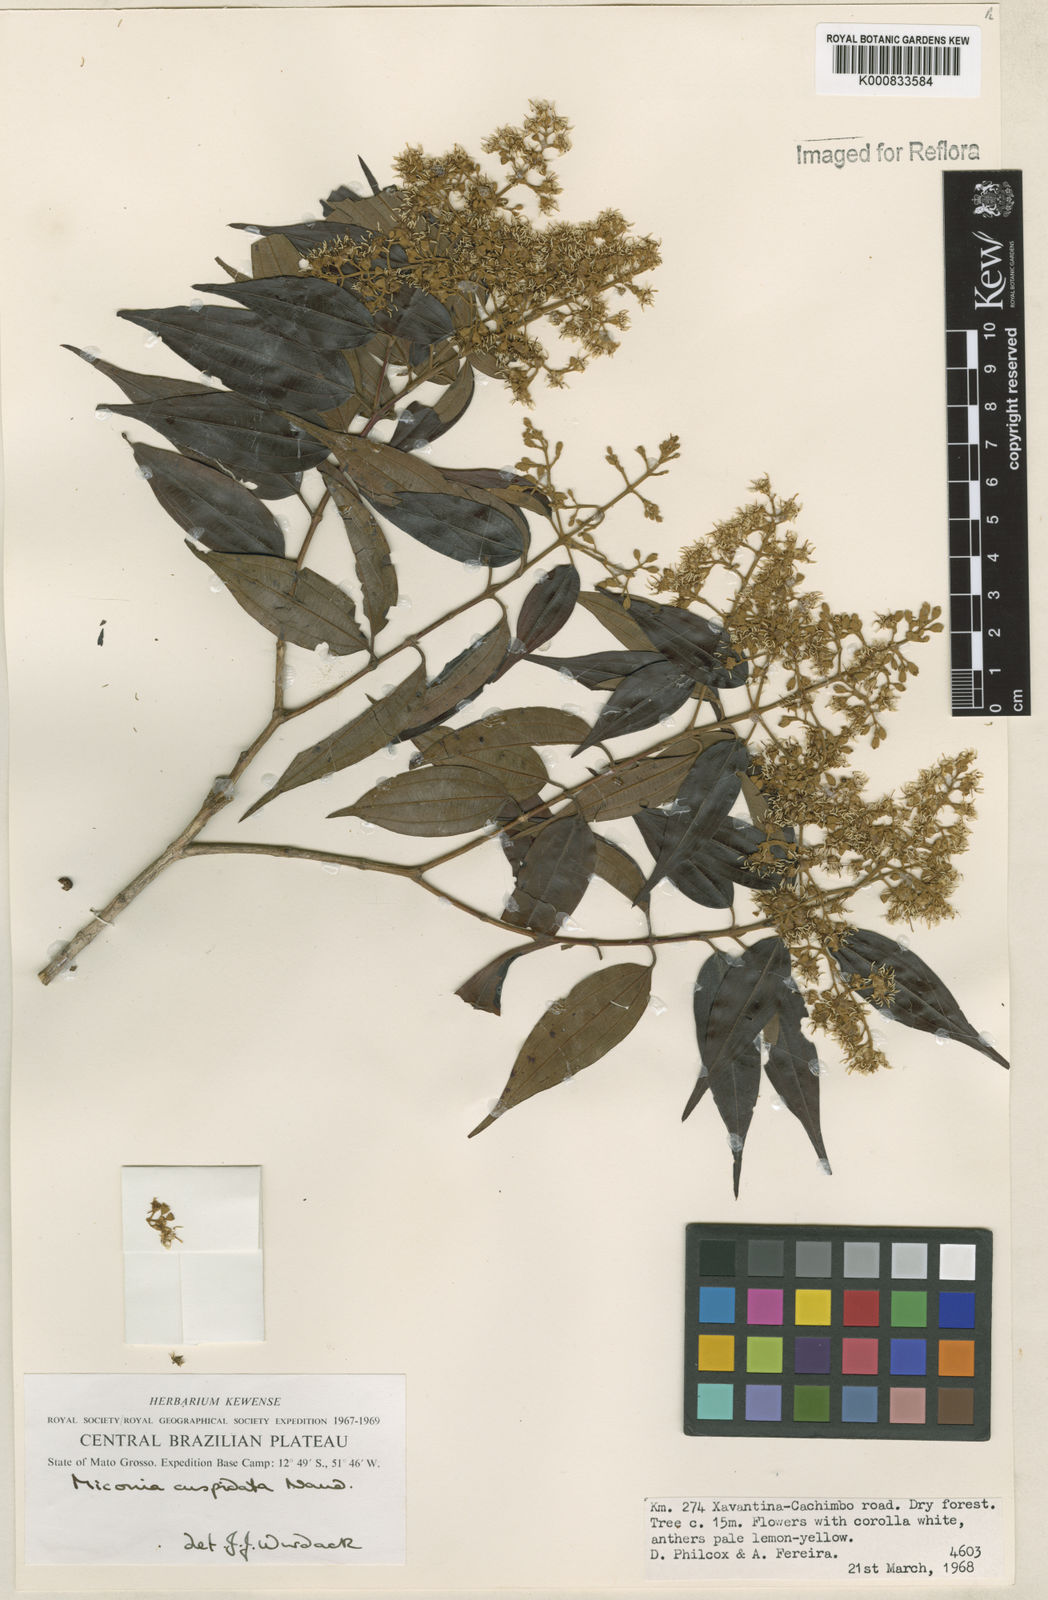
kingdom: Plantae
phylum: Tracheophyta
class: Magnoliopsida
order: Myrtales
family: Melastomataceae
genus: Miconia
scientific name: Miconia cuspidata
